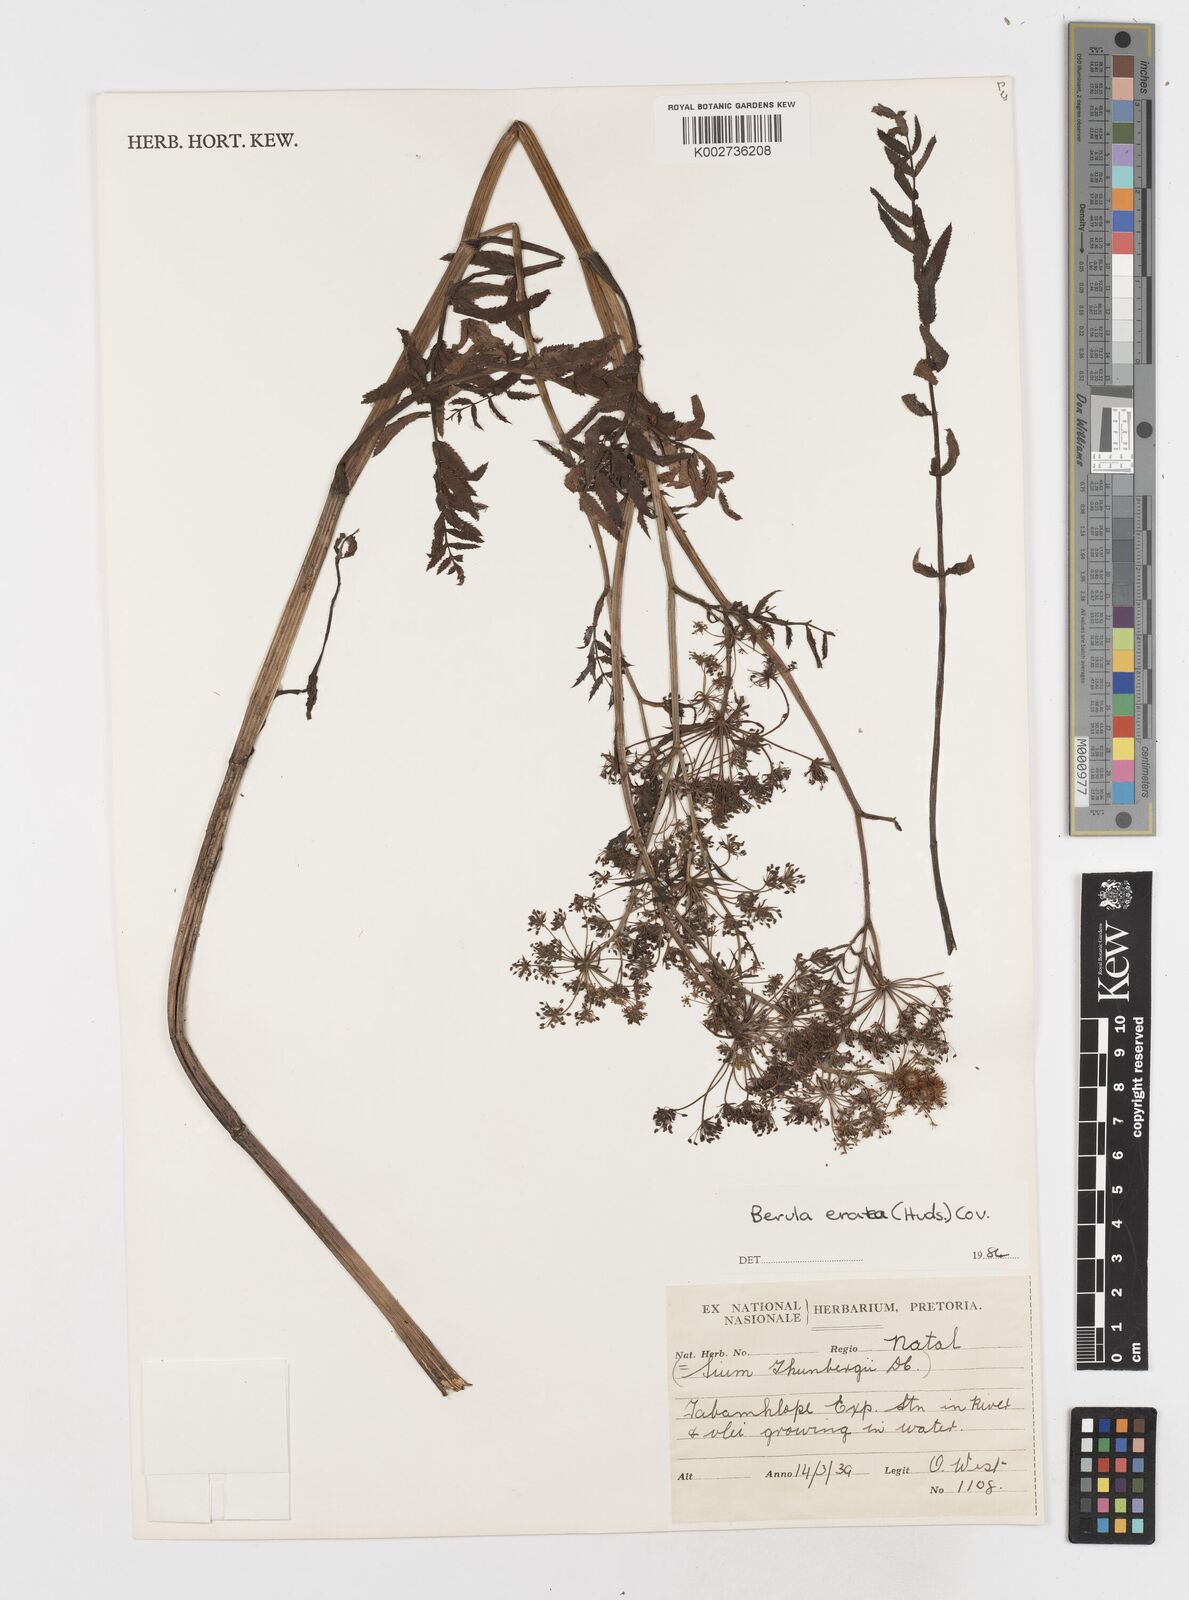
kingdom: Plantae
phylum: Tracheophyta
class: Magnoliopsida
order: Apiales
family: Apiaceae
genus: Berula
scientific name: Berula erecta
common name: Lesser water-parsnip
